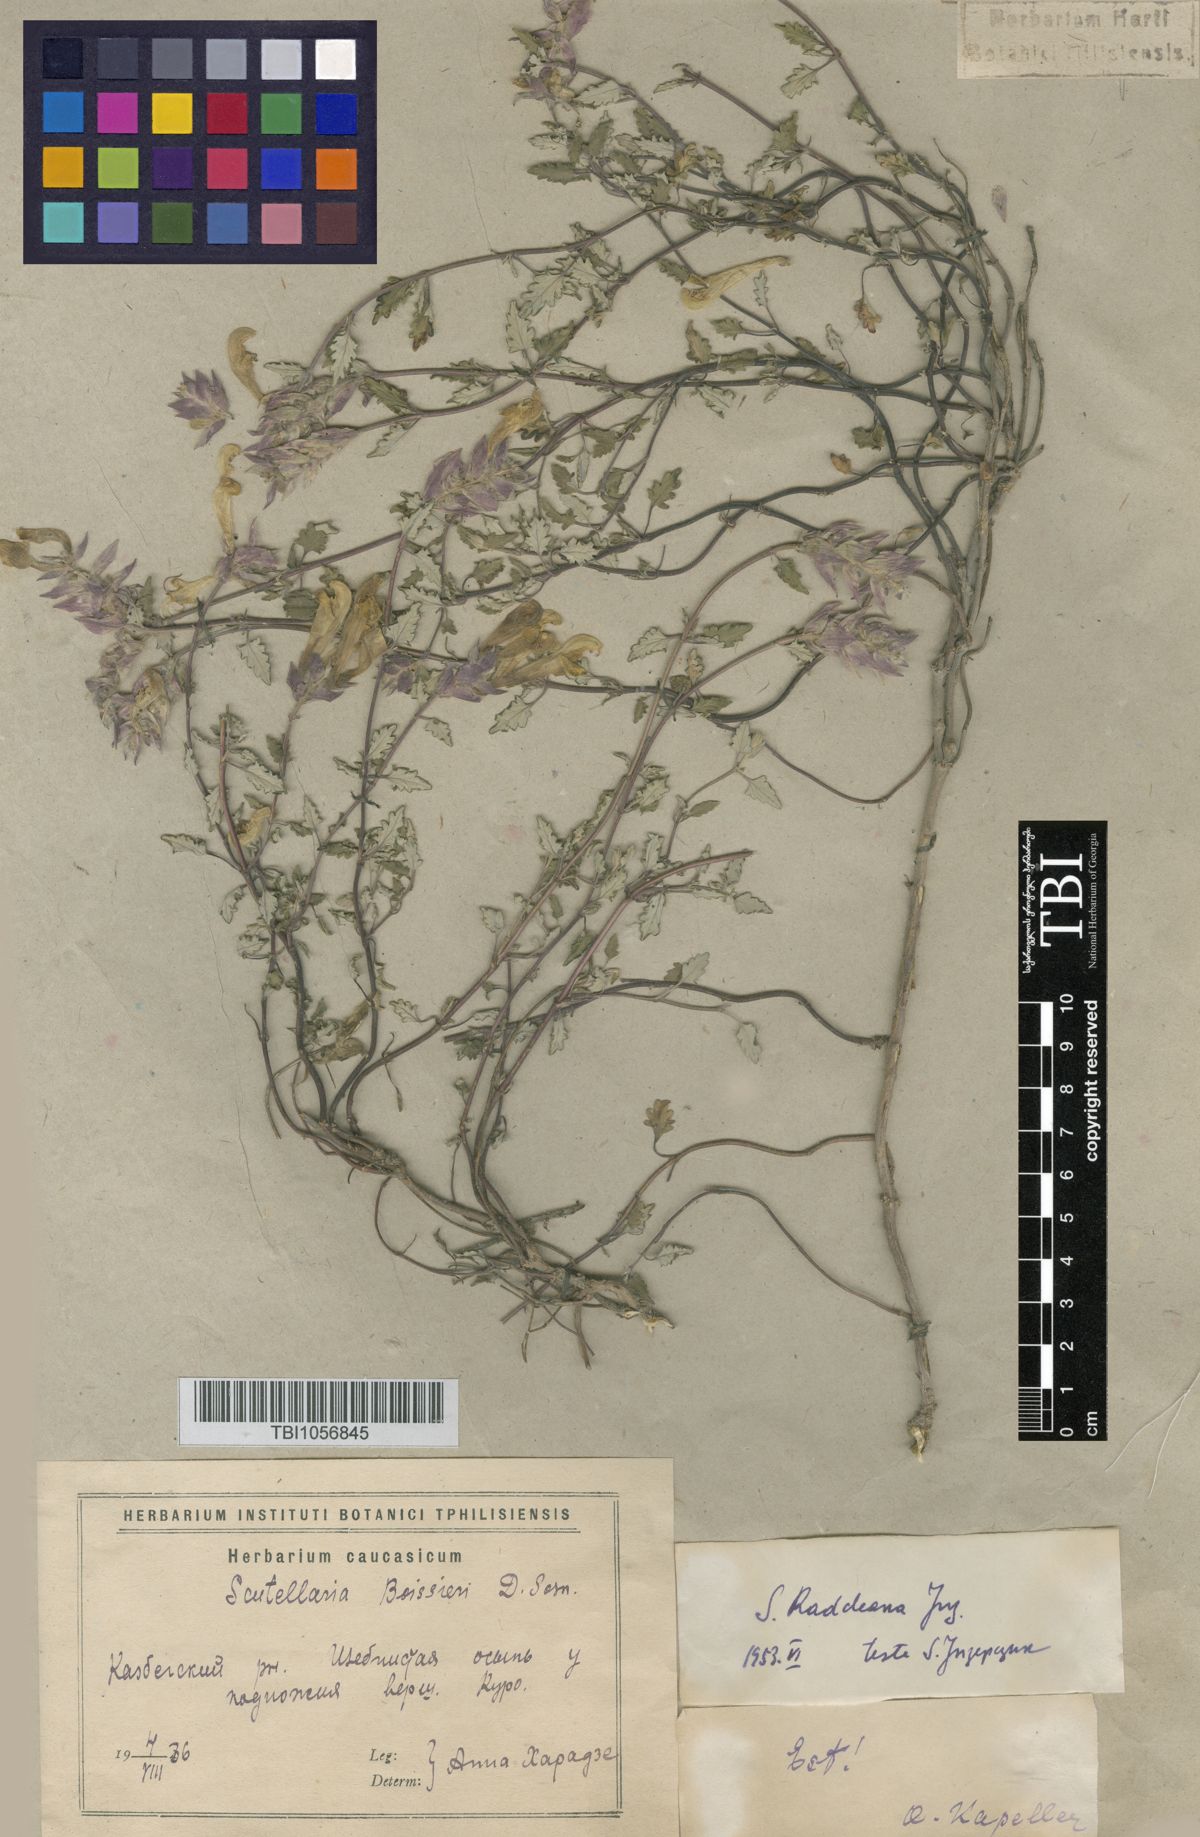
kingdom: Plantae
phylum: Tracheophyta
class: Magnoliopsida
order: Lamiales
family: Lamiaceae
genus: Scutellaria
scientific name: Scutellaria raddeana
